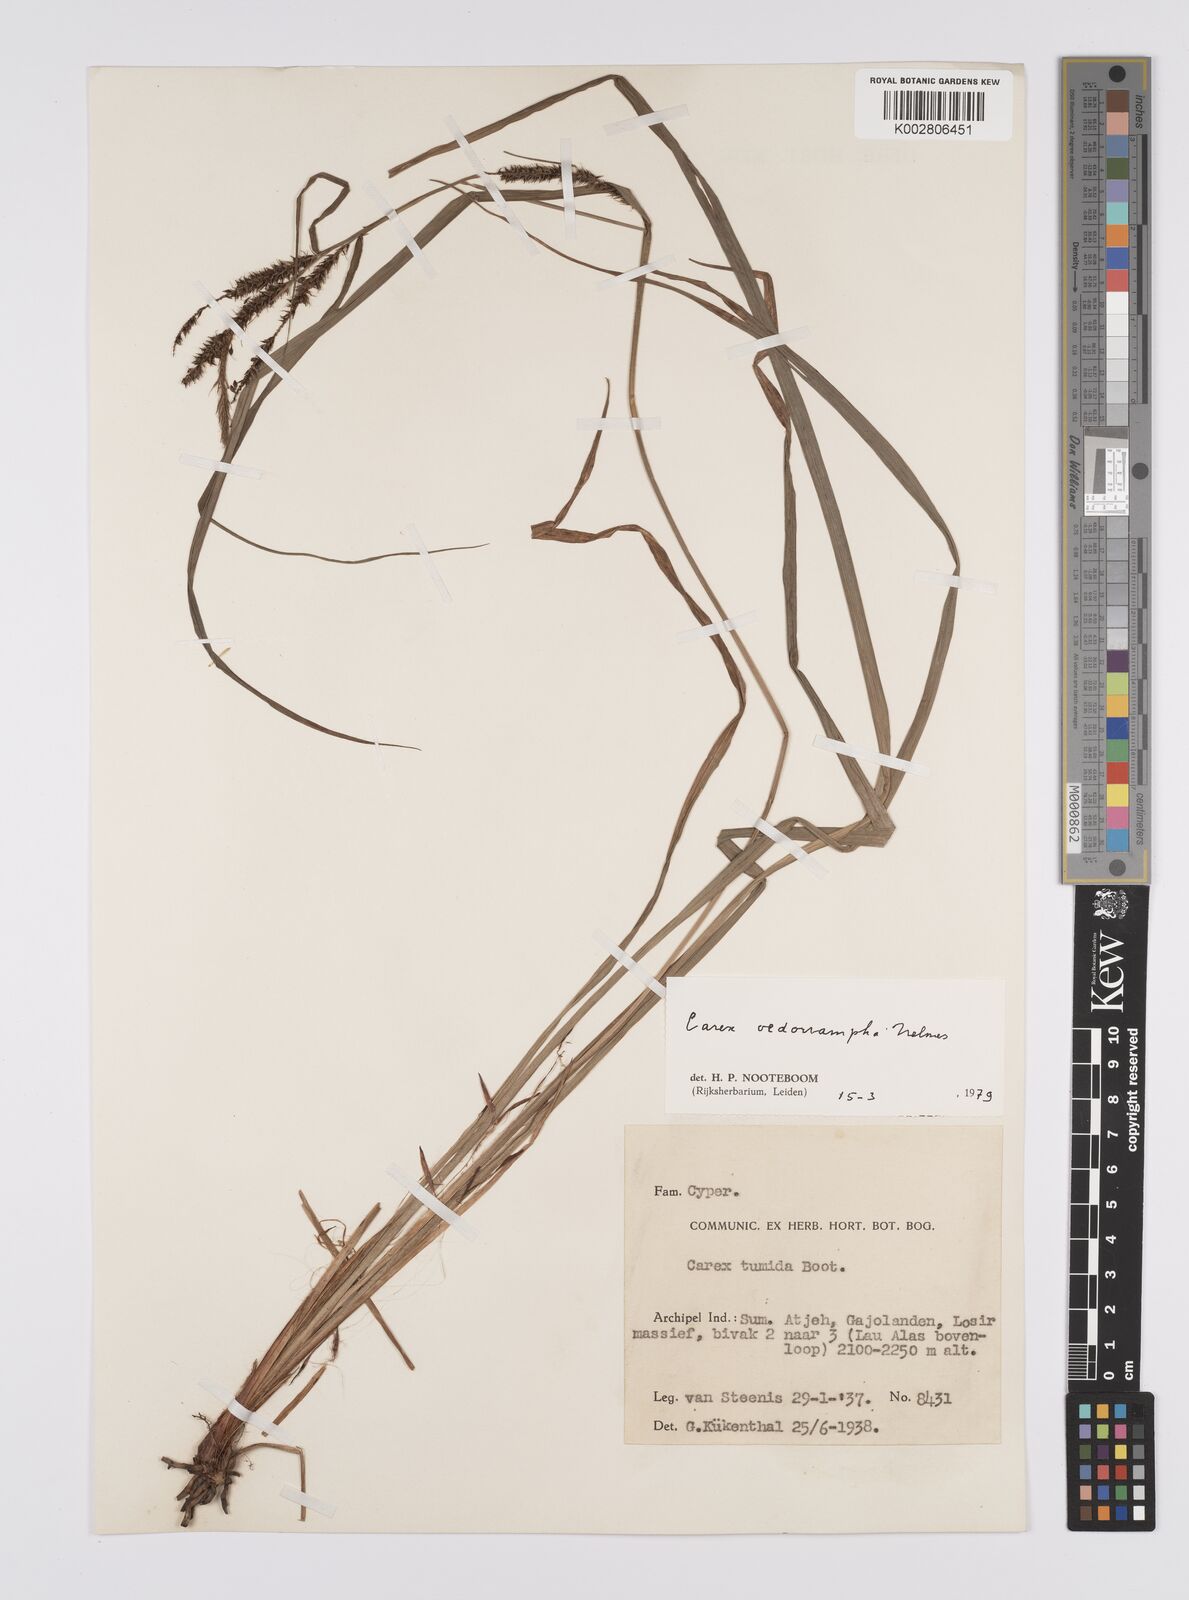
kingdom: Plantae
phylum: Tracheophyta
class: Liliopsida
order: Poales
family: Cyperaceae
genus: Carex
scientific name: Carex tumida
